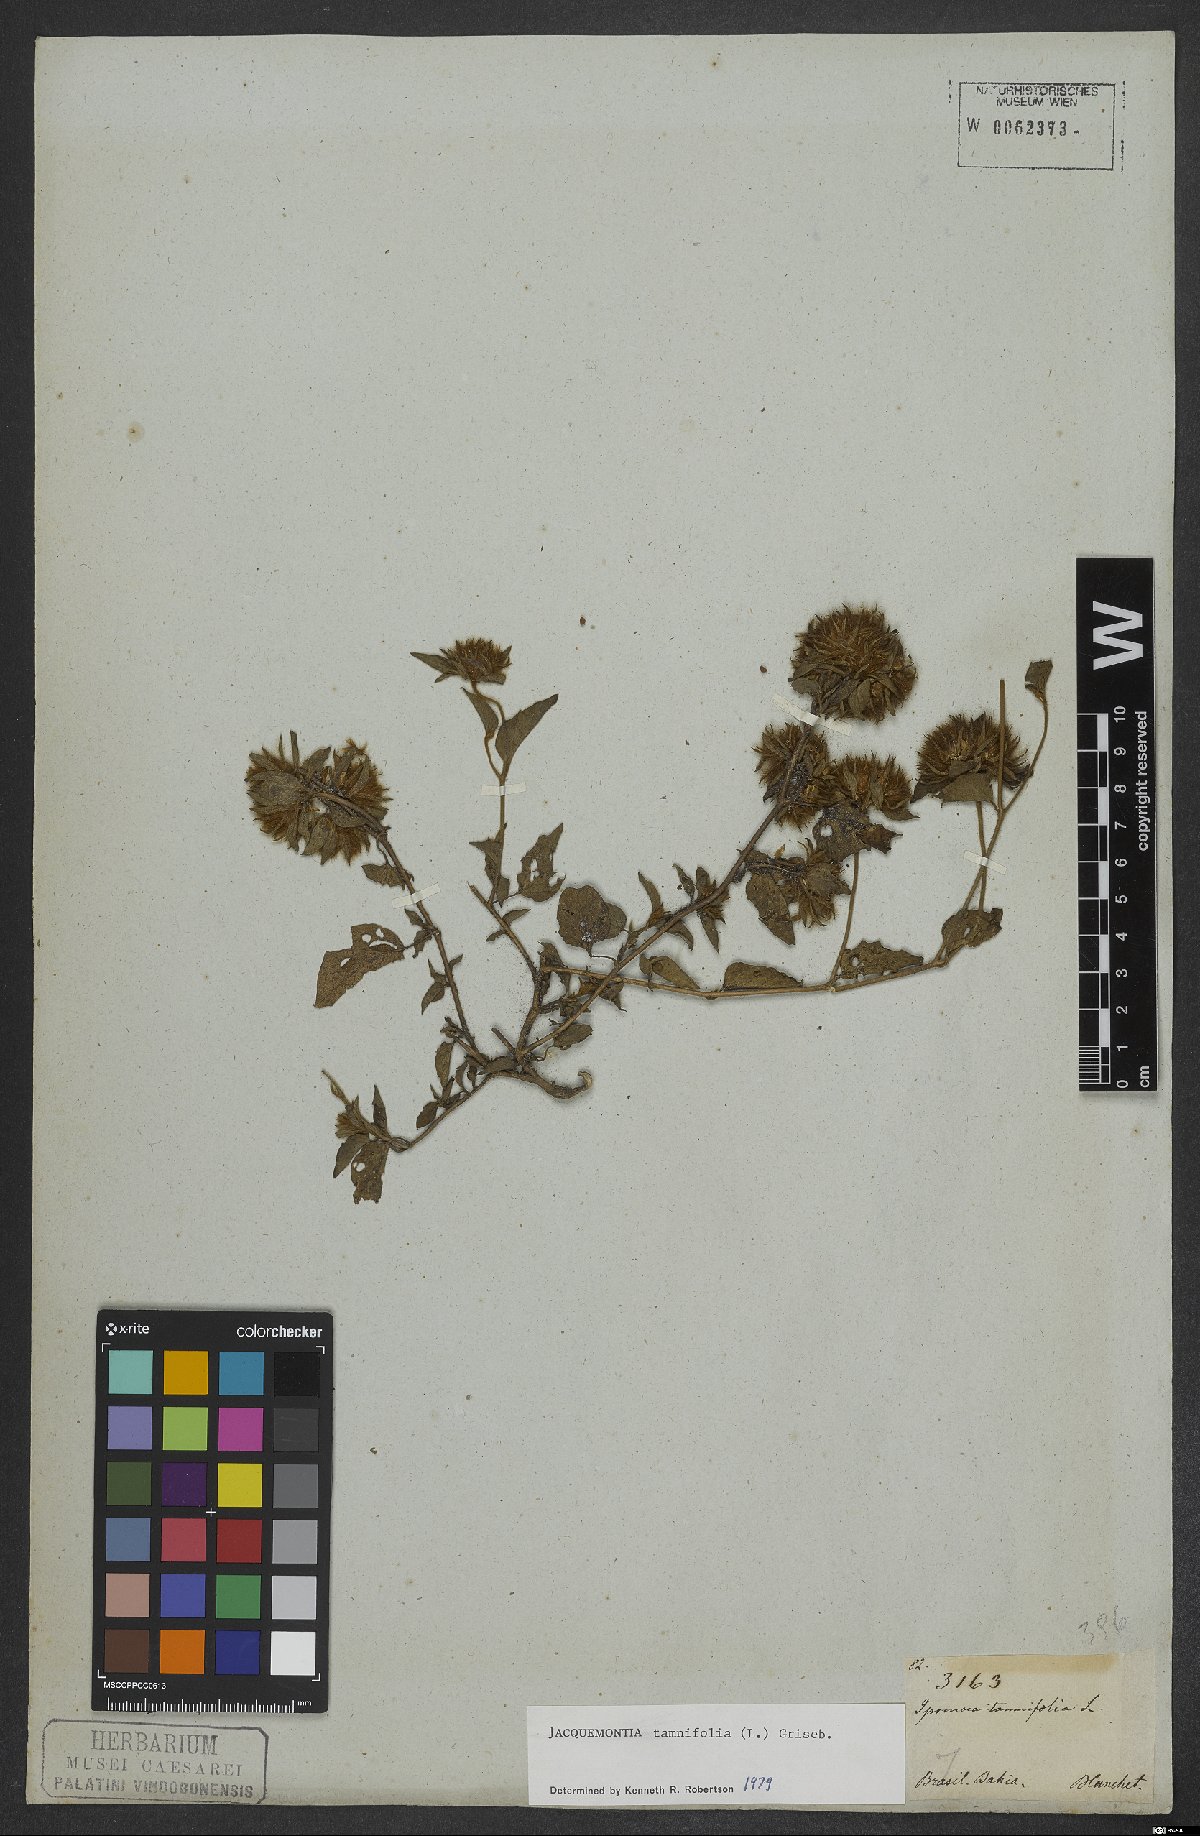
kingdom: Plantae
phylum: Tracheophyta
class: Magnoliopsida
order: Solanales
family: Convolvulaceae
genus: Jacquemontia
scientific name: Jacquemontia tamnifolia
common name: Hairy clustervine
